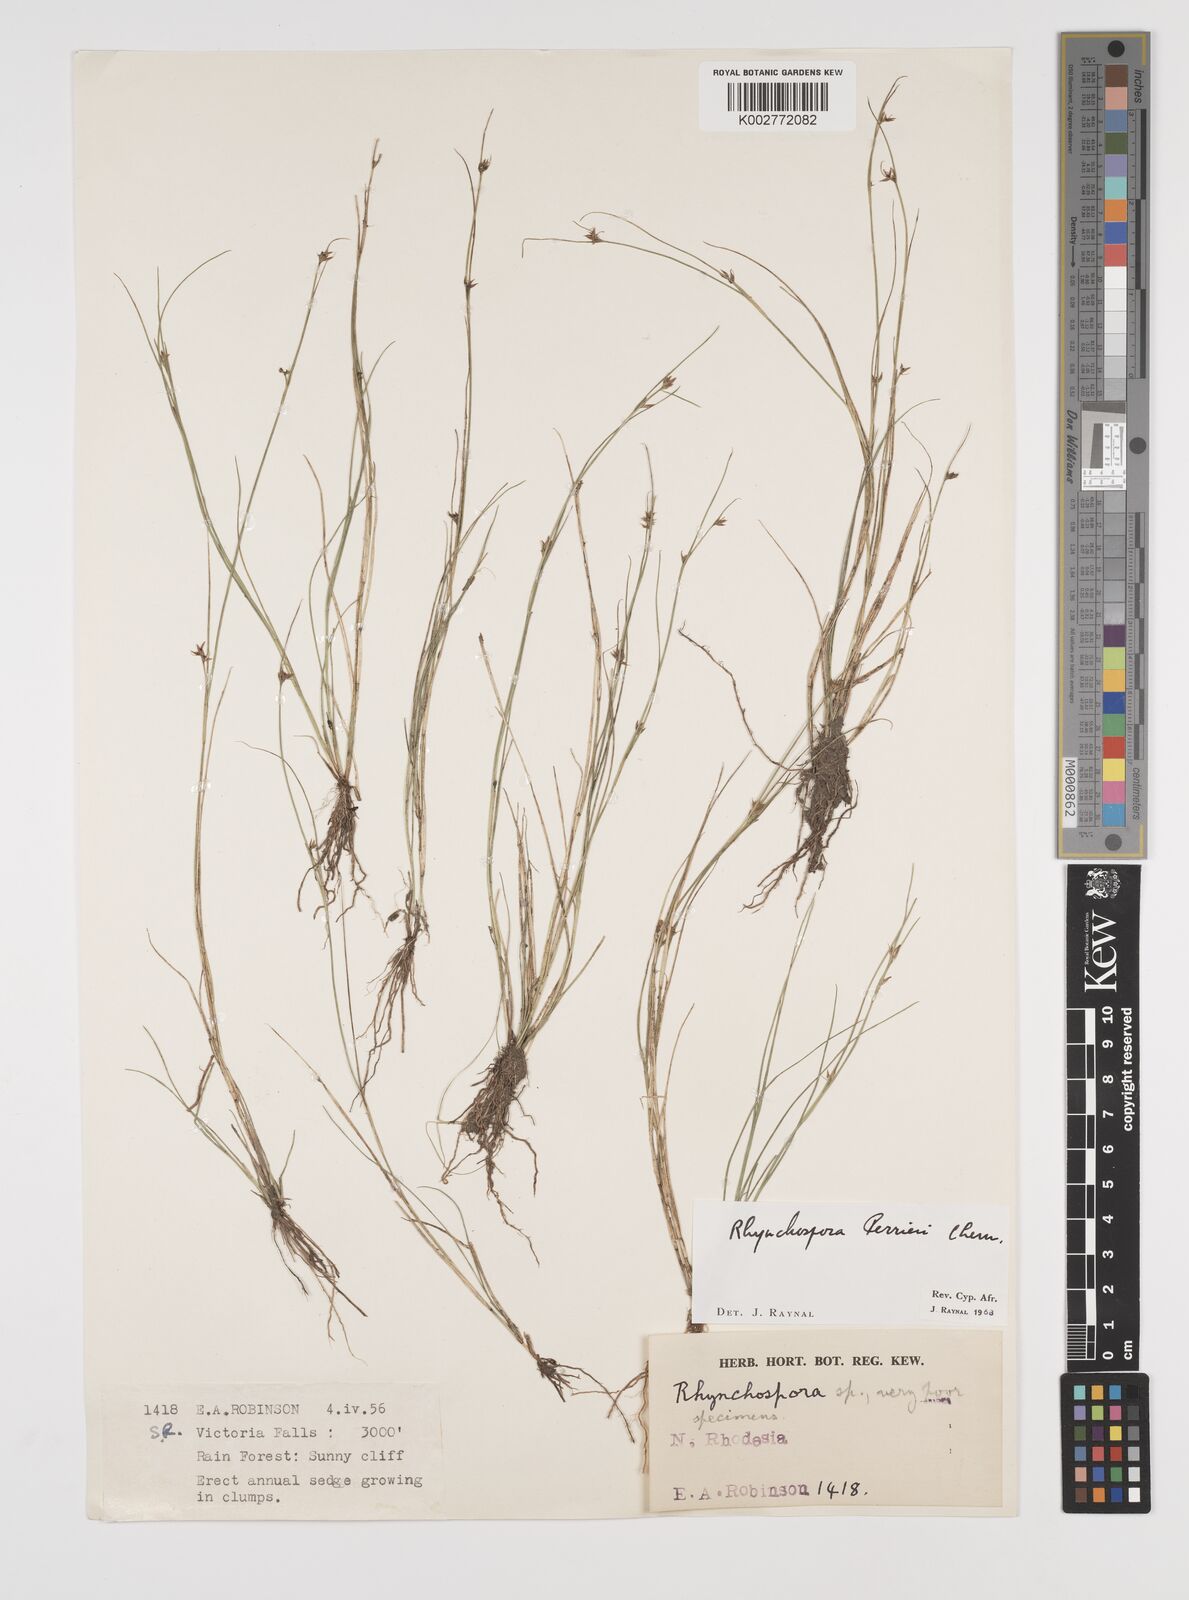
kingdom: Plantae
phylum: Tracheophyta
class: Liliopsida
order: Poales
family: Cyperaceae
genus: Rhynchospora
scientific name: Rhynchospora perrieri
